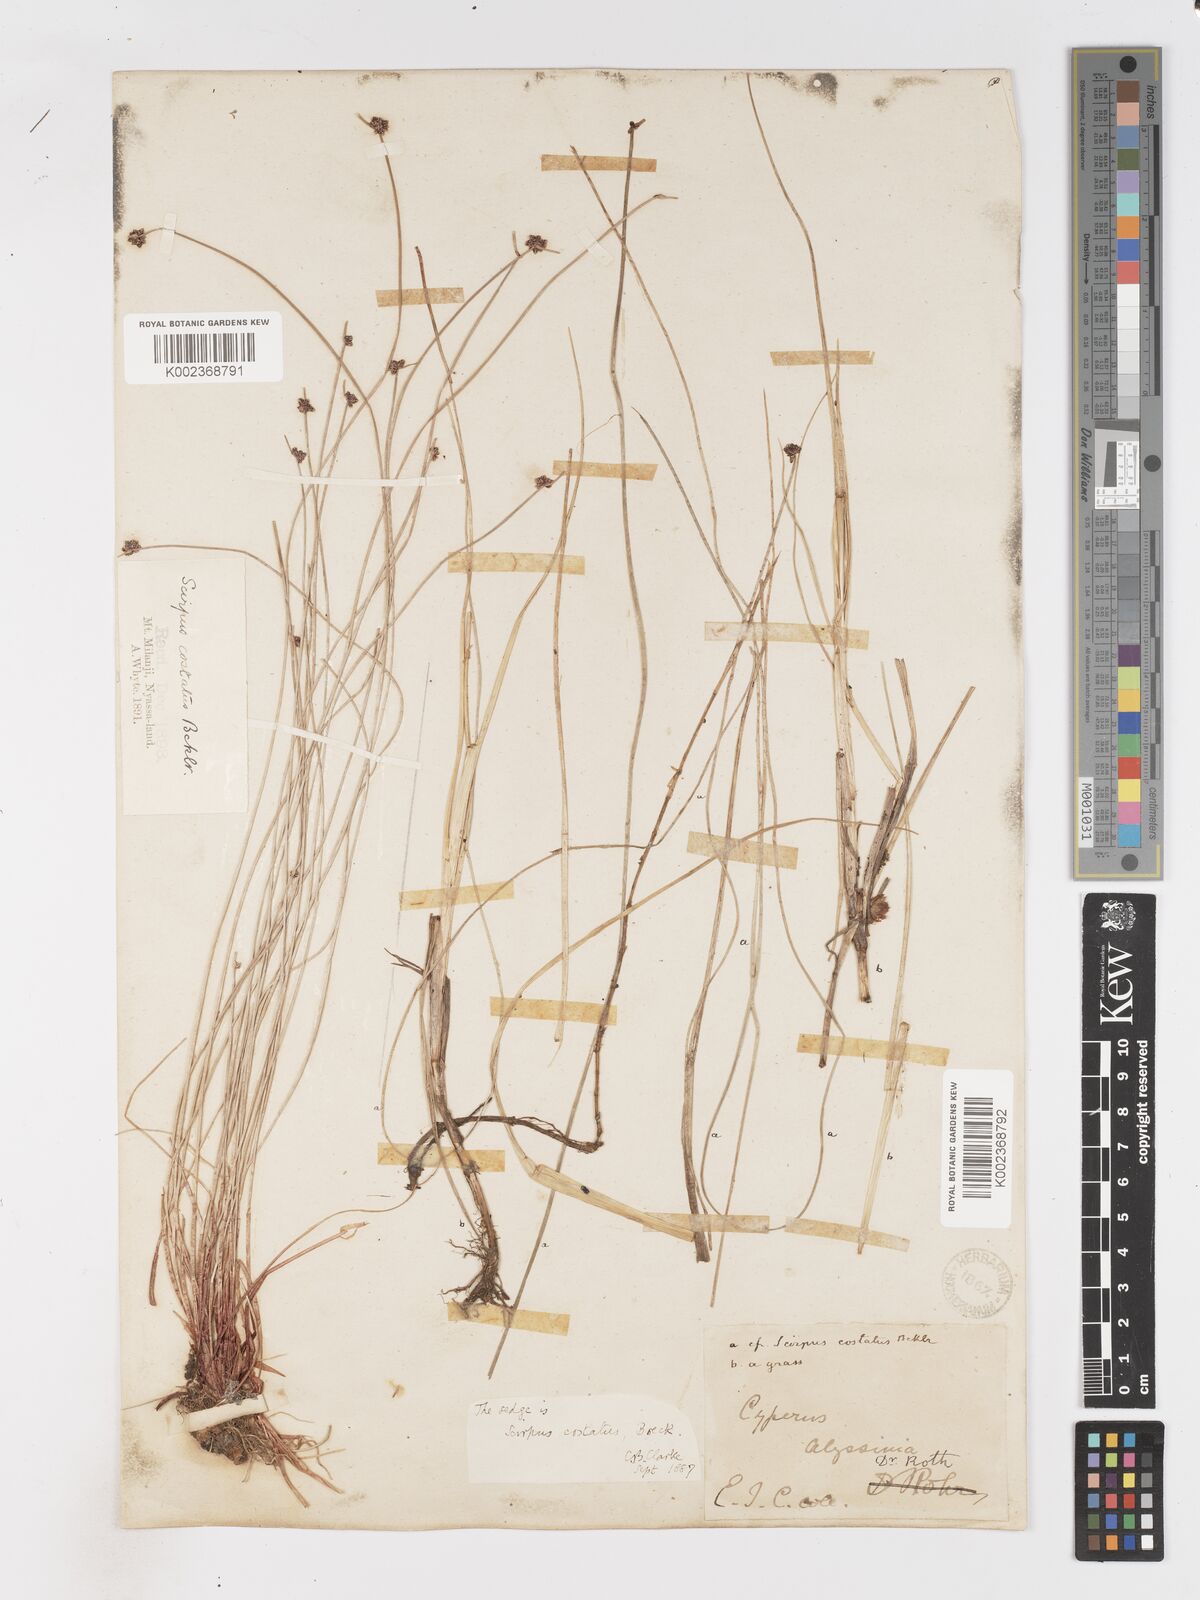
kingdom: Plantae
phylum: Tracheophyta
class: Liliopsida
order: Poales
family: Cyperaceae
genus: Isolepis
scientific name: Isolepis costata
